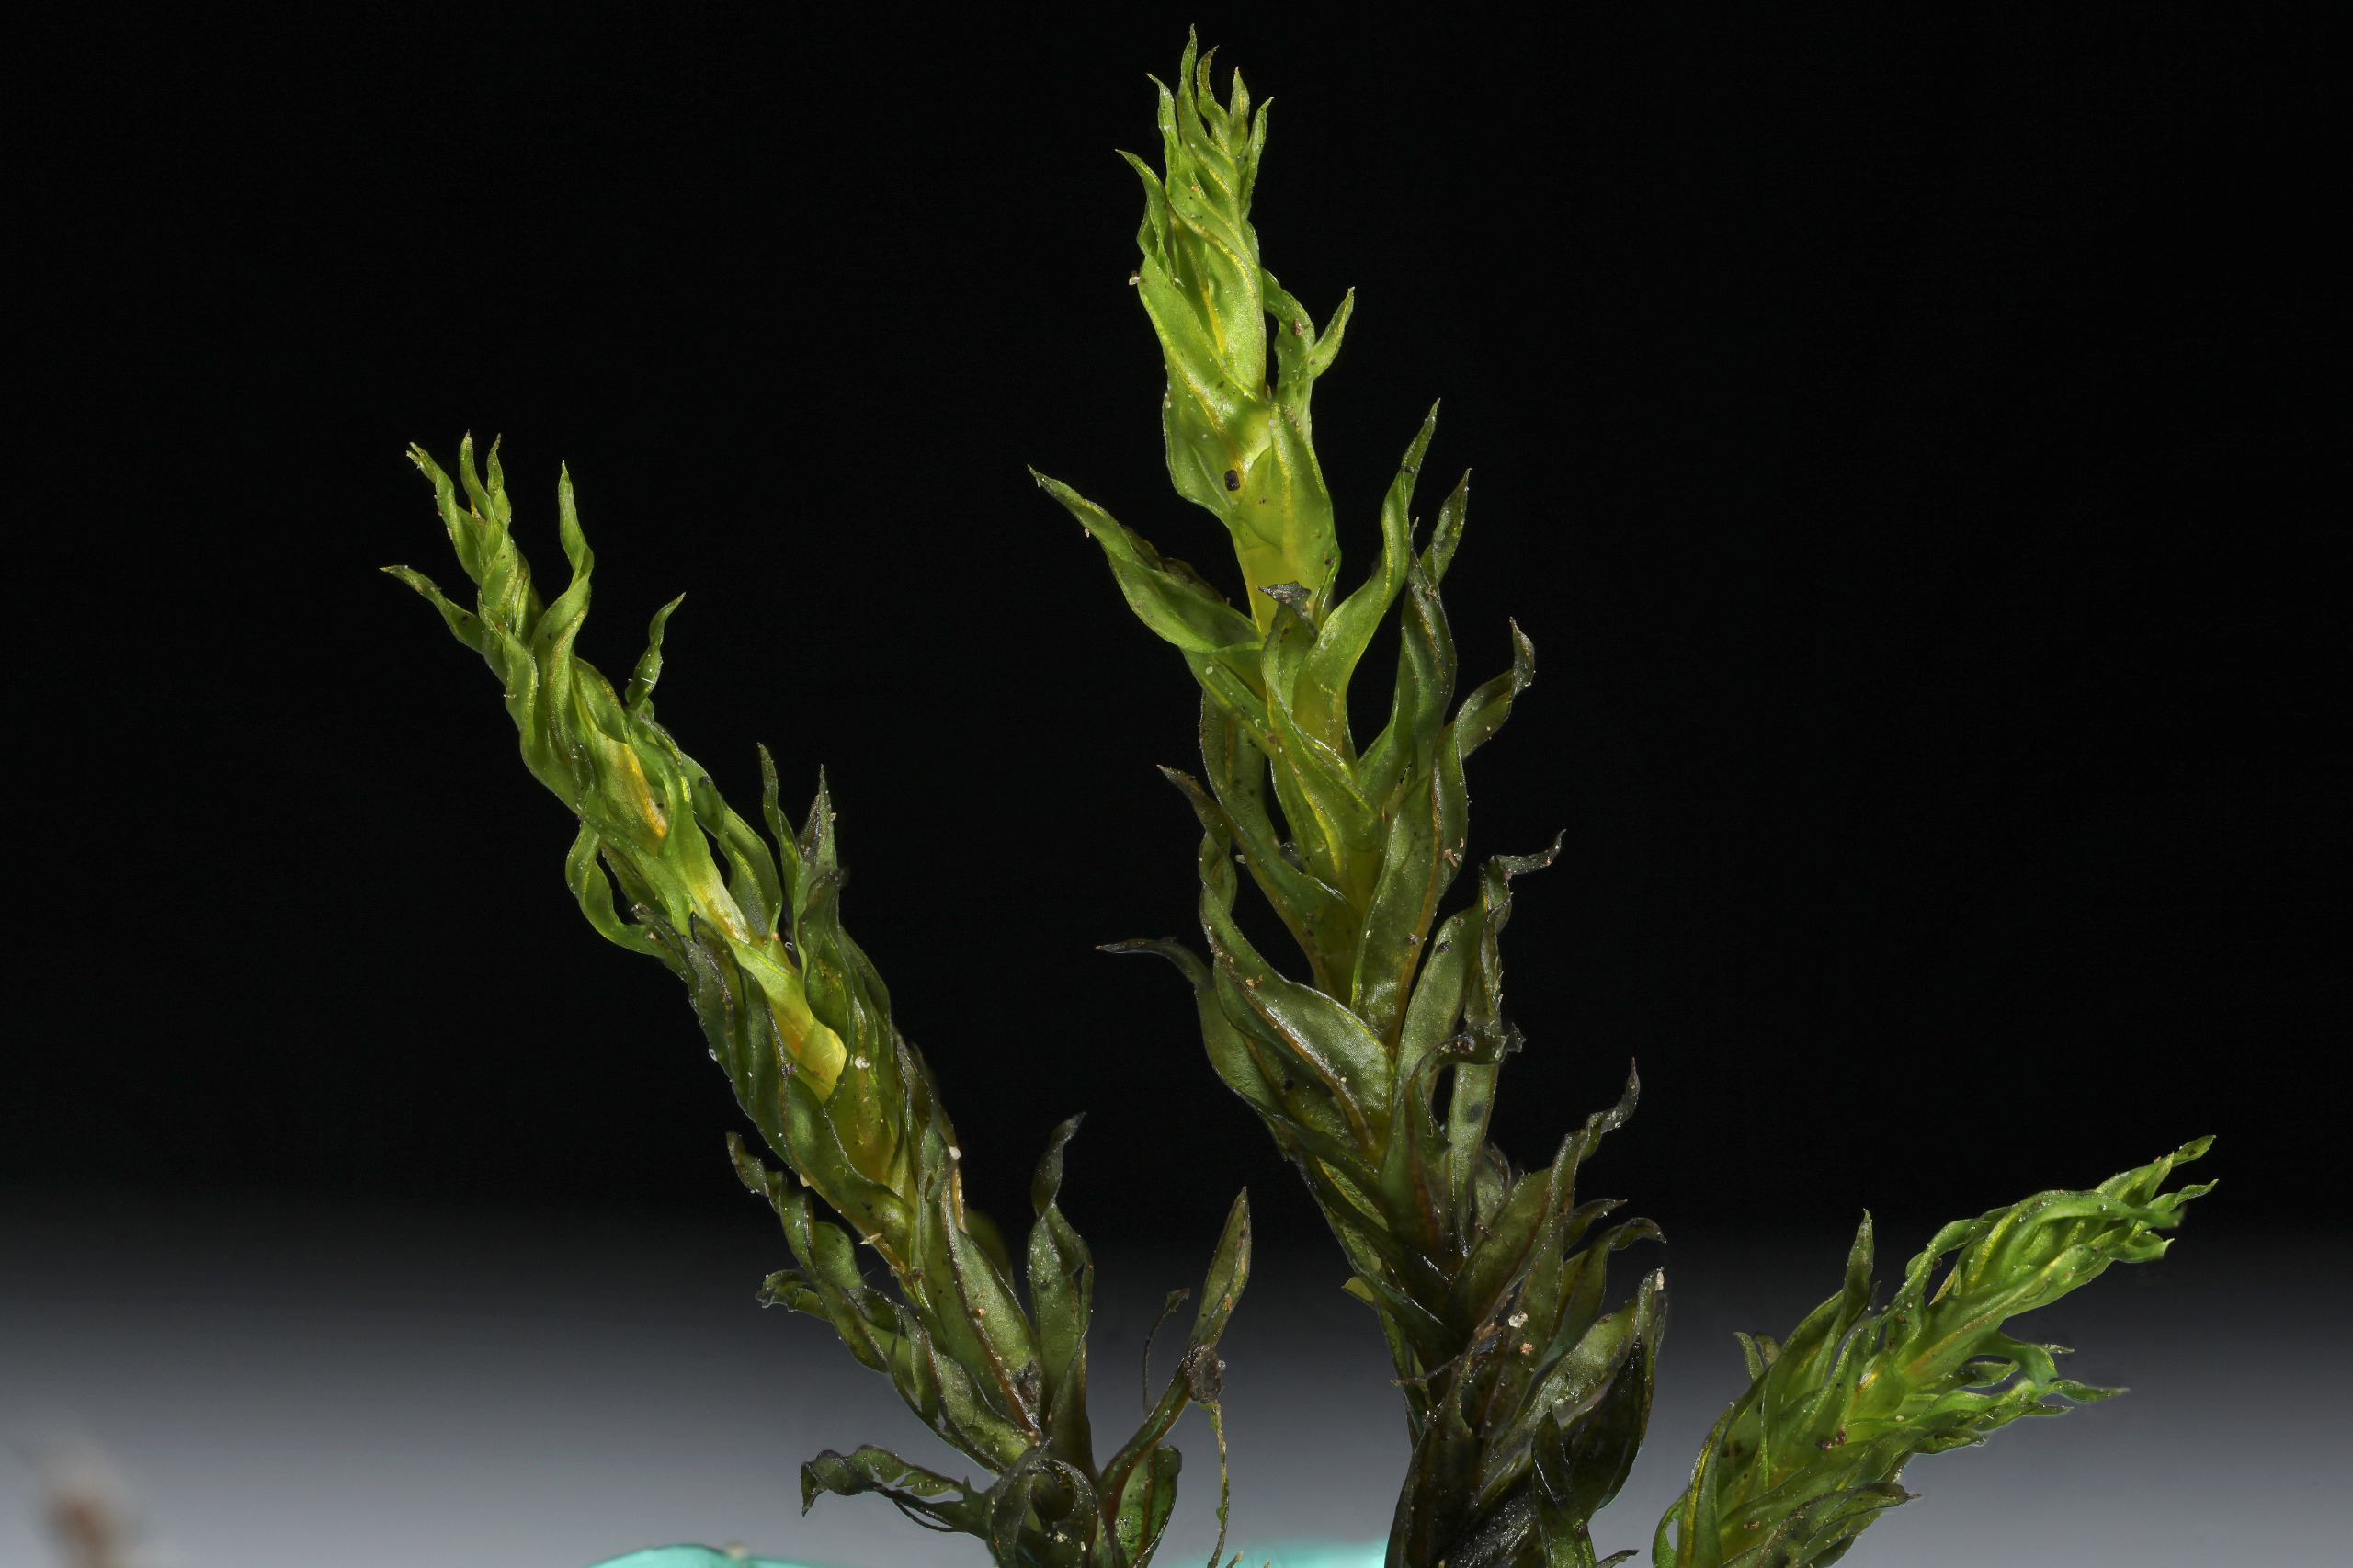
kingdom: Plantae
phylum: Bryophyta
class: Bryopsida
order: Pottiales
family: Pottiaceae
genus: Cinclidotus
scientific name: Cinclidotus fontinaloides
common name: Kilde-rammeblad
